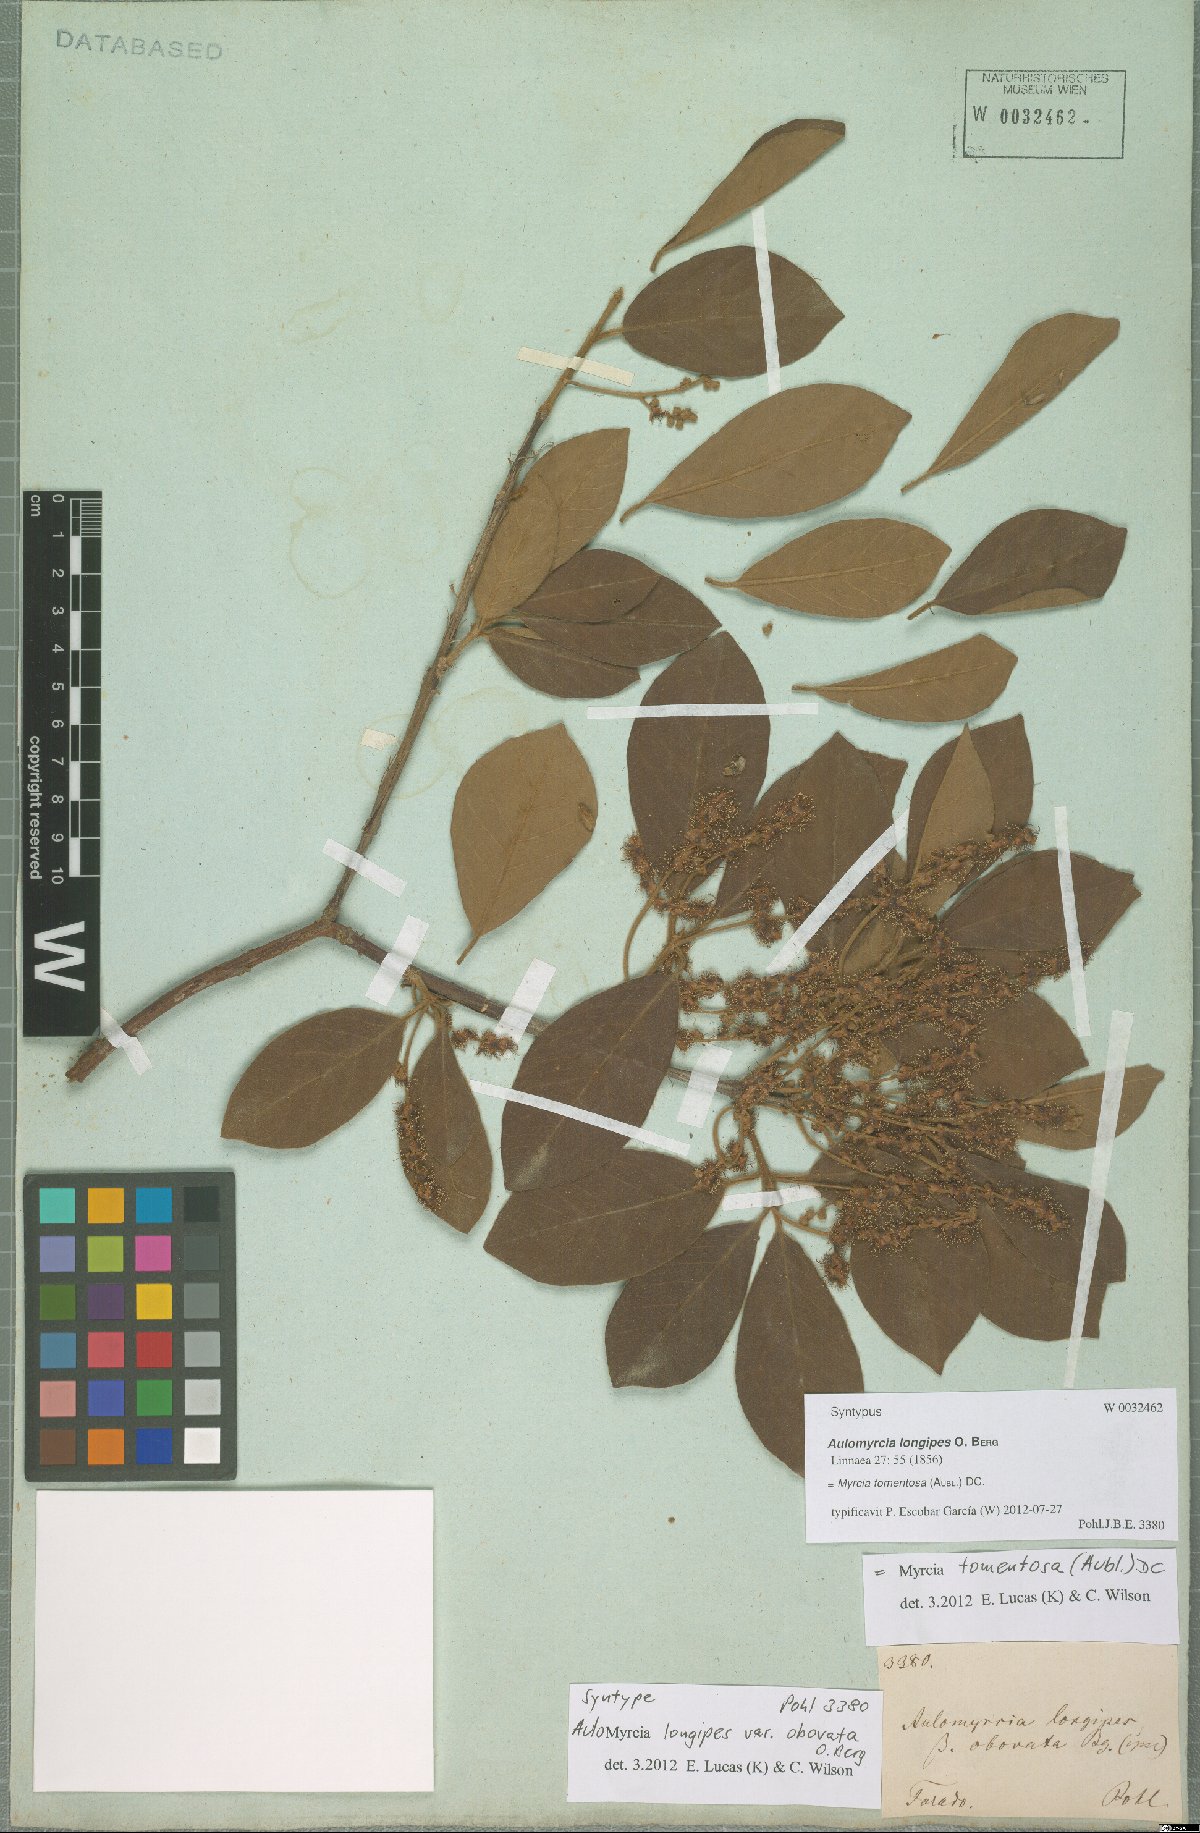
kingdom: Plantae
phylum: Tracheophyta
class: Magnoliopsida
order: Myrtales
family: Myrtaceae
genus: Myrcia
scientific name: Myrcia tomentosa
